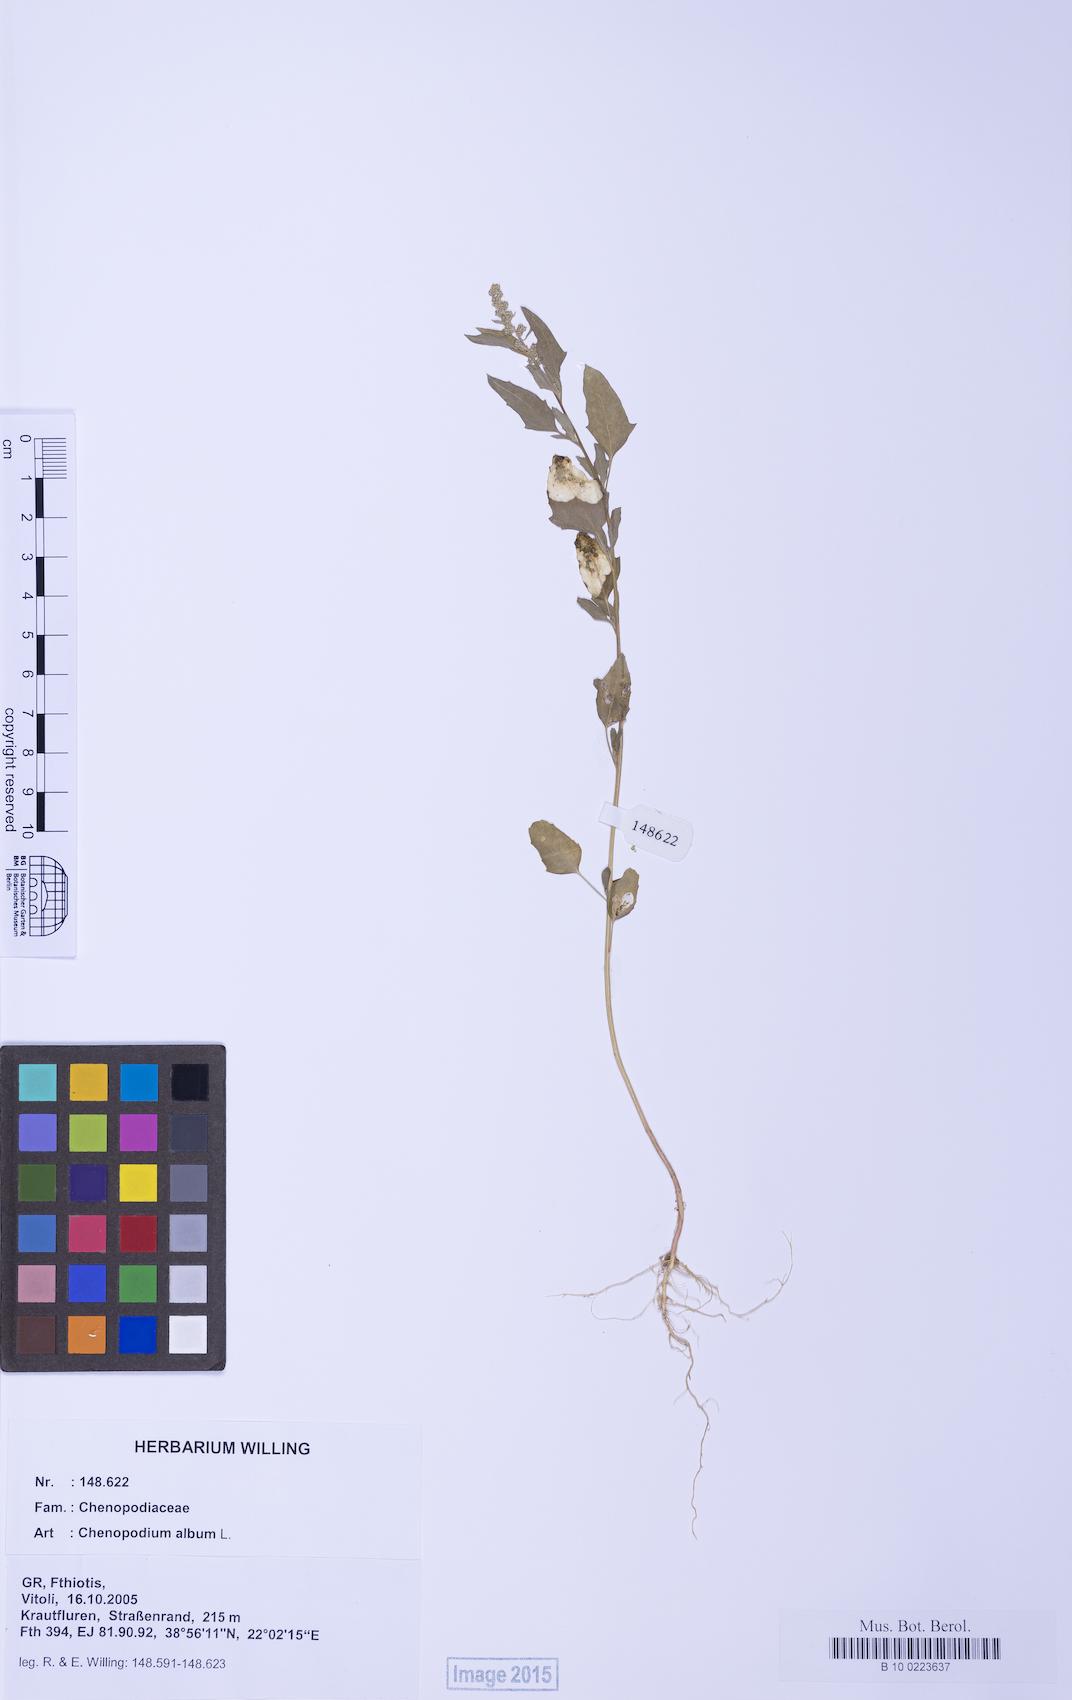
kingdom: Plantae
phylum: Tracheophyta
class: Magnoliopsida
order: Caryophyllales
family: Amaranthaceae
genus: Chenopodium
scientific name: Chenopodium album
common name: Fat-hen
